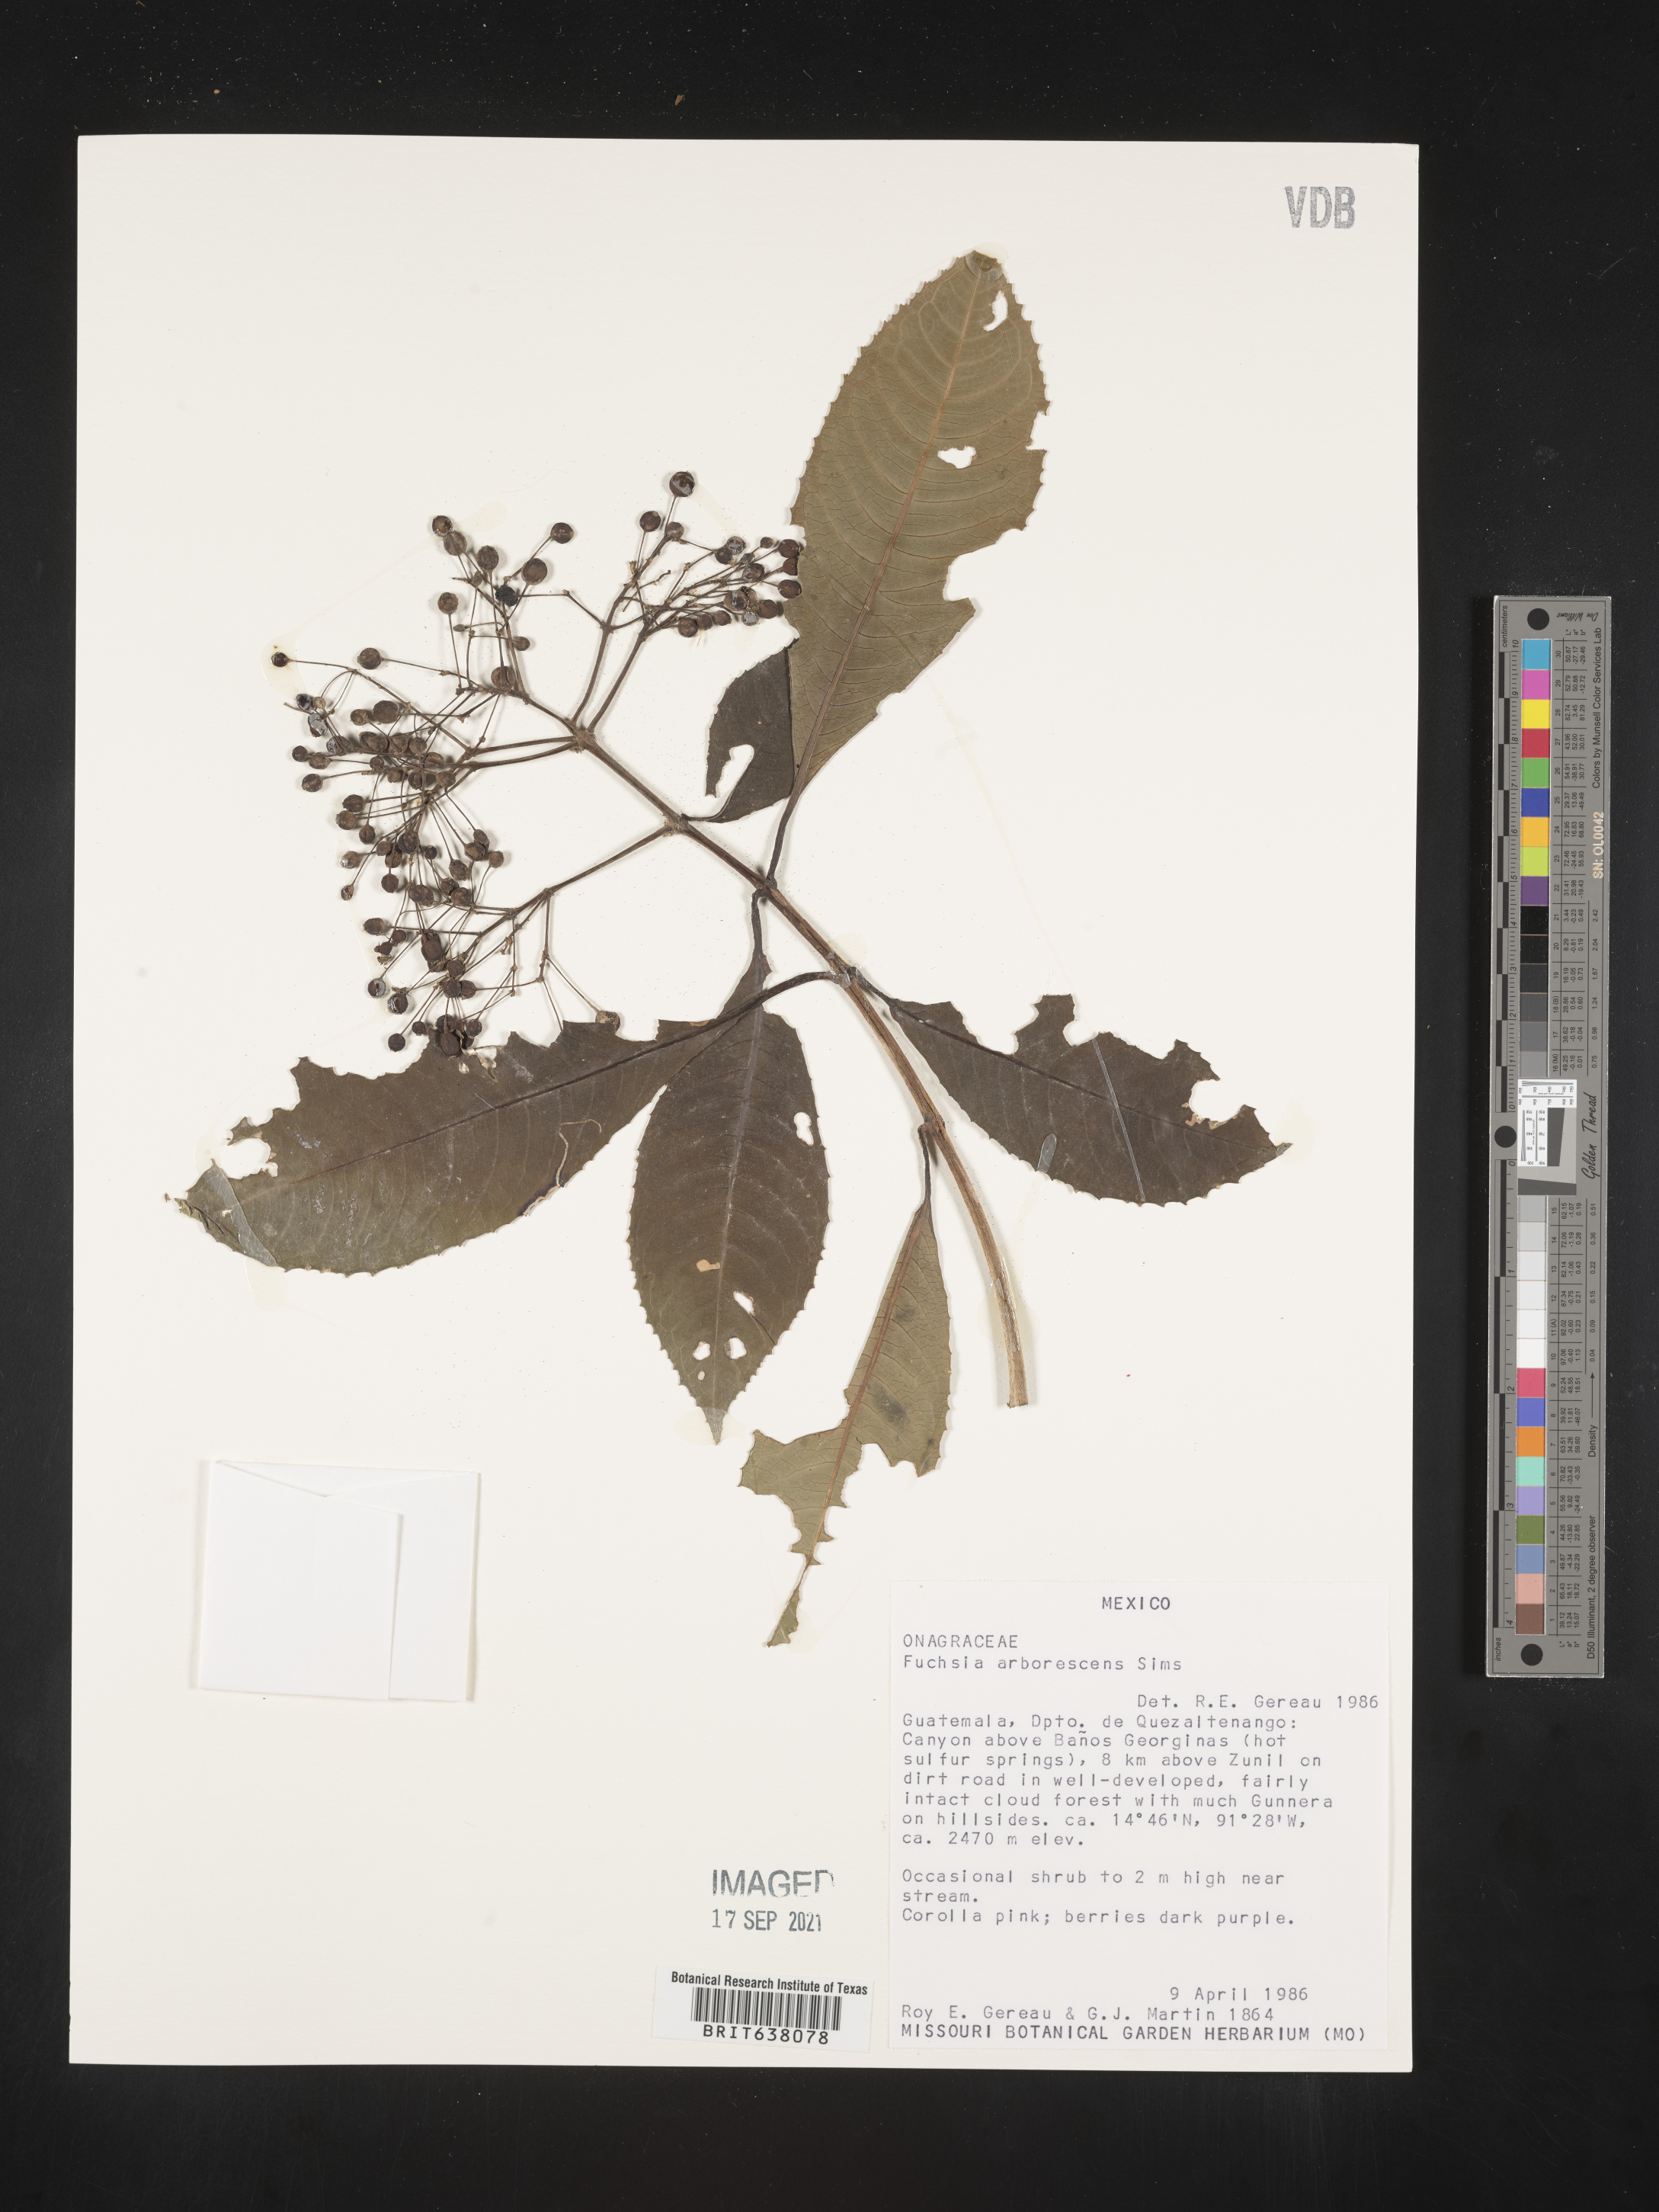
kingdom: Plantae
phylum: Tracheophyta
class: Magnoliopsida
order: Myrtales
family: Onagraceae
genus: Fuchsia
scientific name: Fuchsia
